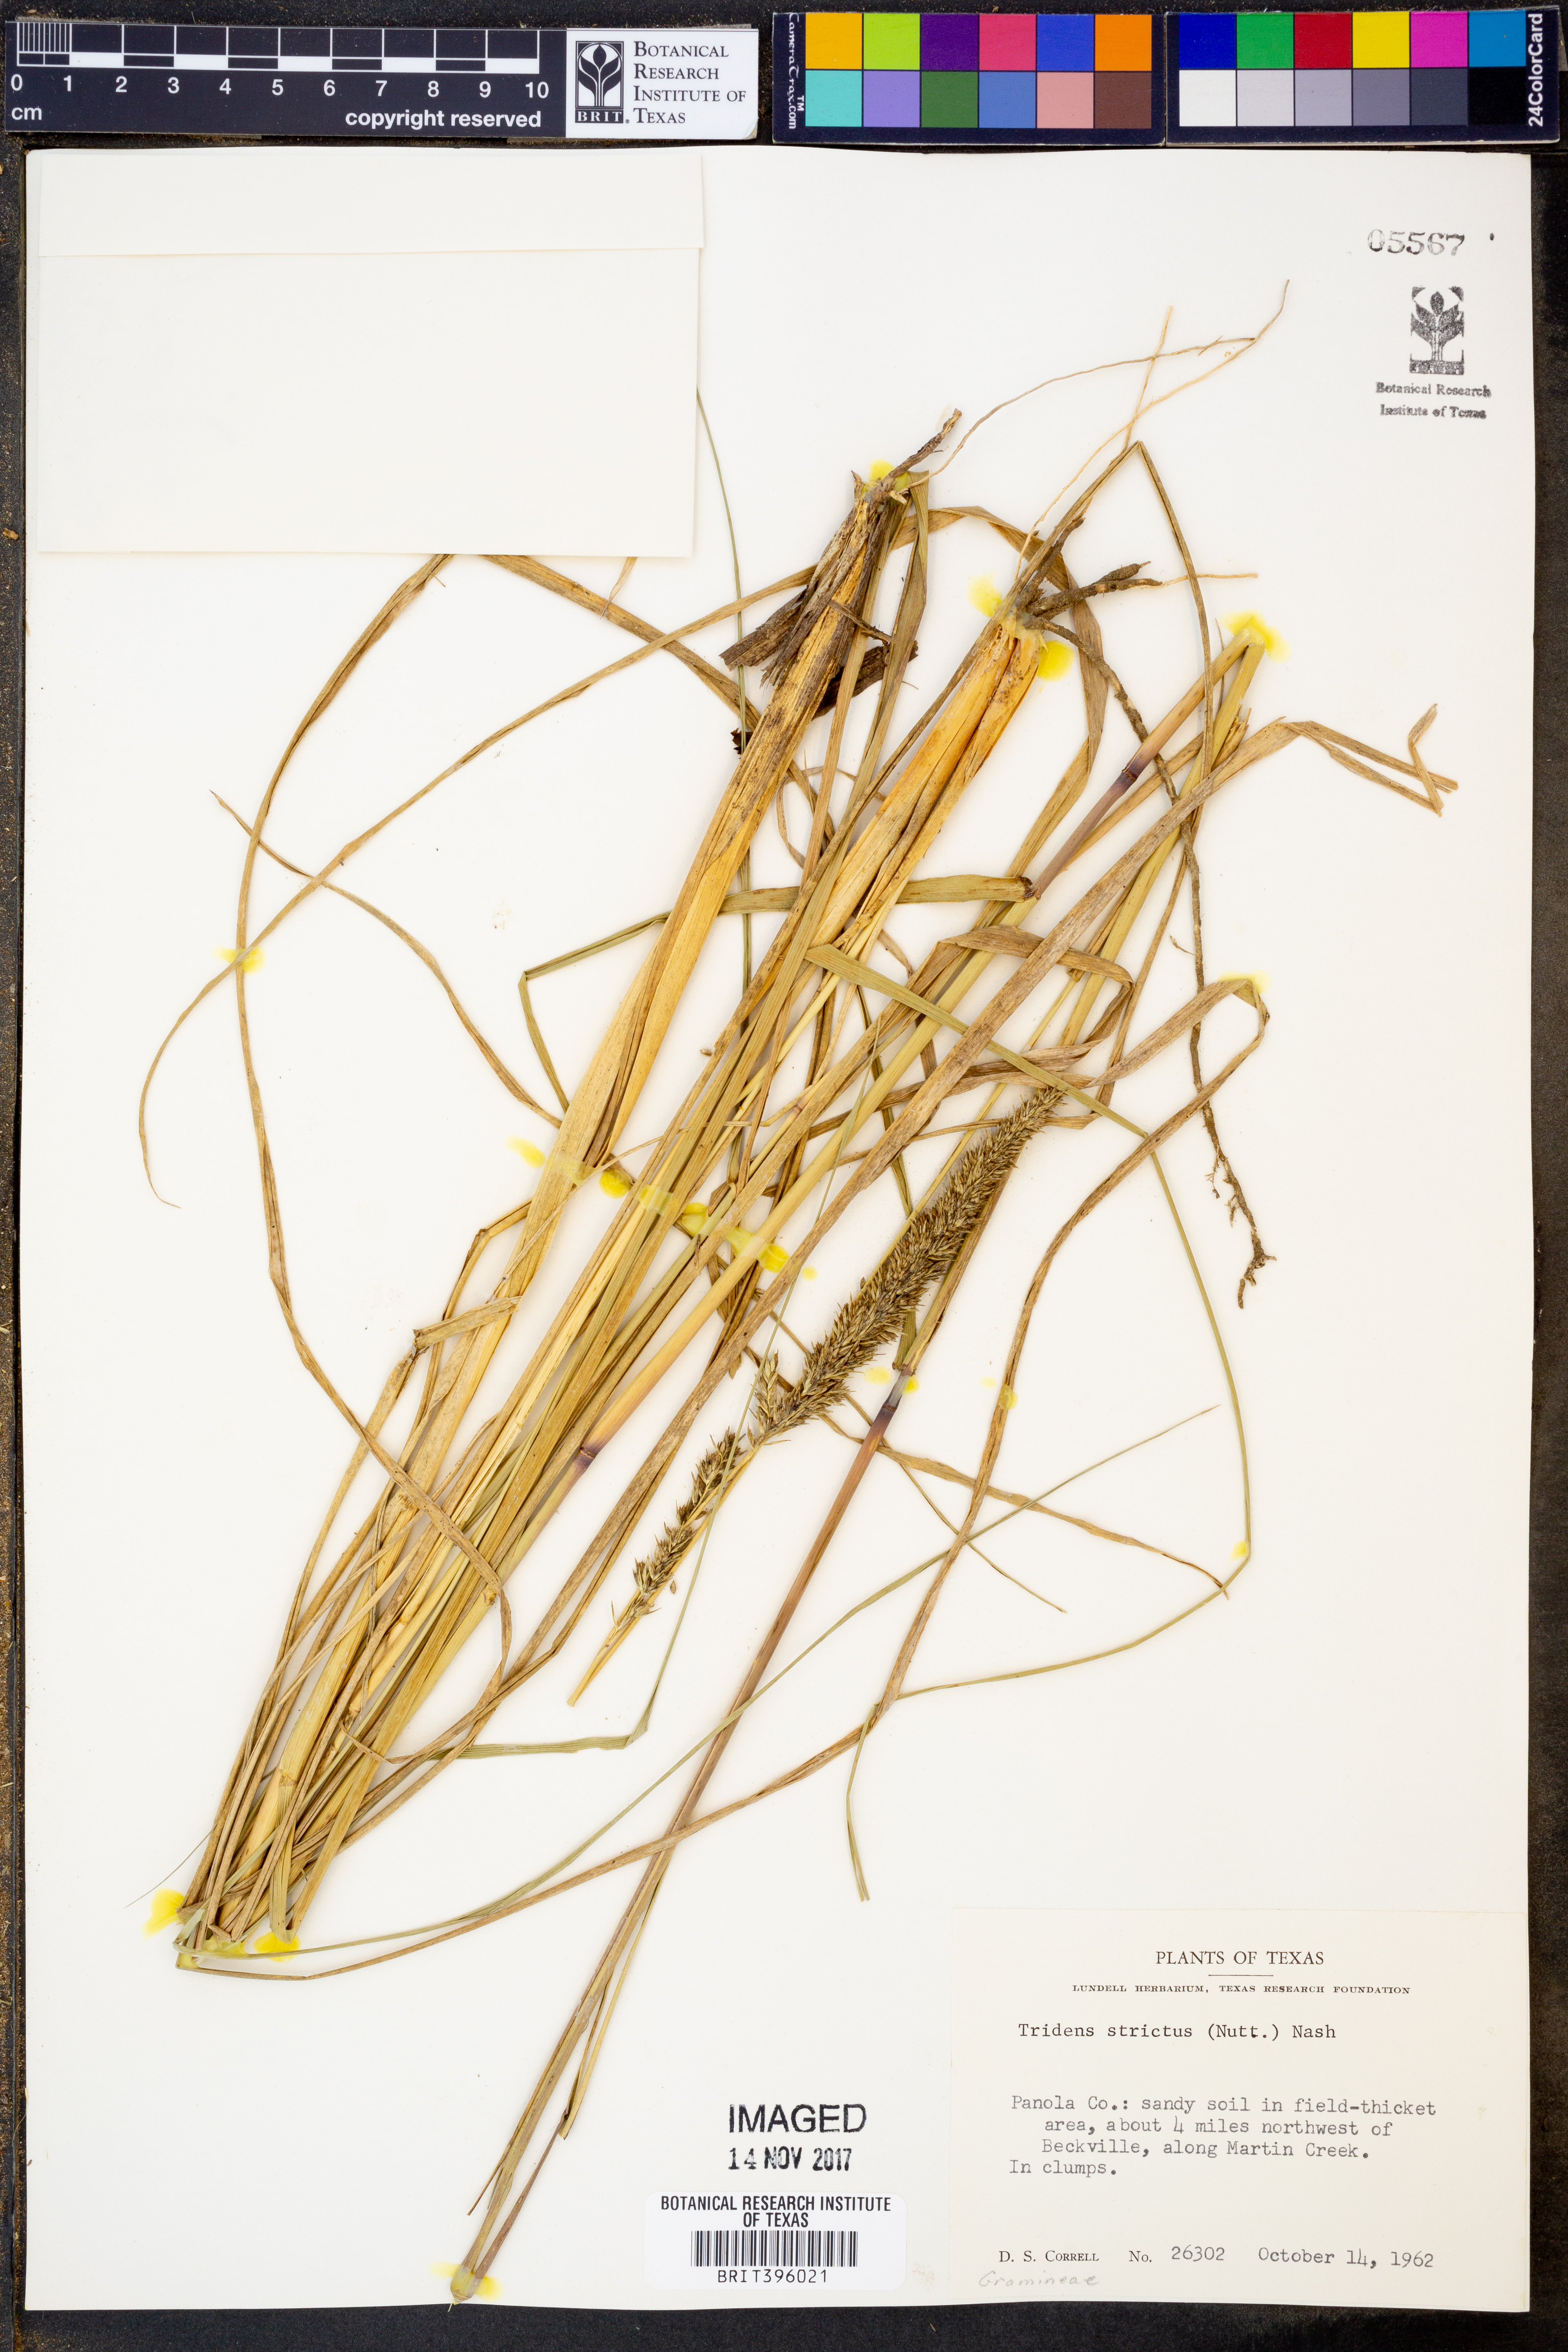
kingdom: Plantae
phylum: Tracheophyta
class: Liliopsida
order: Poales
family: Poaceae
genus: Tridens
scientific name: Tridens strictus
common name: Long-spike tridens
